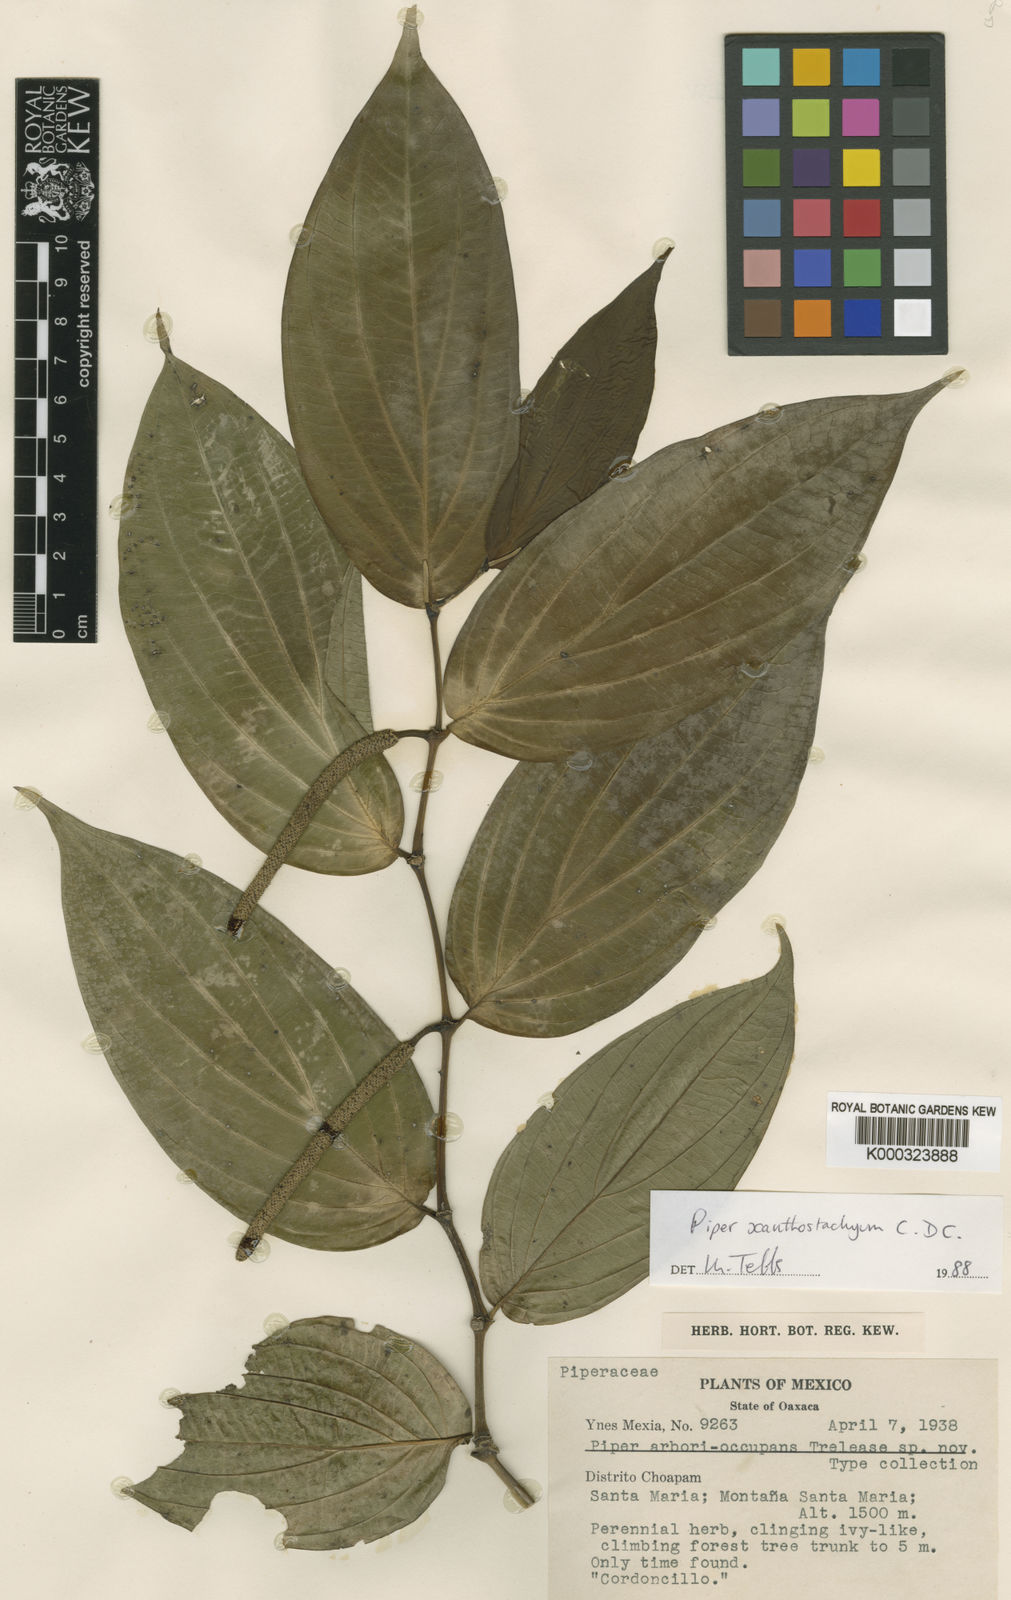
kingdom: Plantae
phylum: Tracheophyta
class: Magnoliopsida
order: Piperales
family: Piperaceae
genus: Piper
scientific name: Piper xanthostachyum
